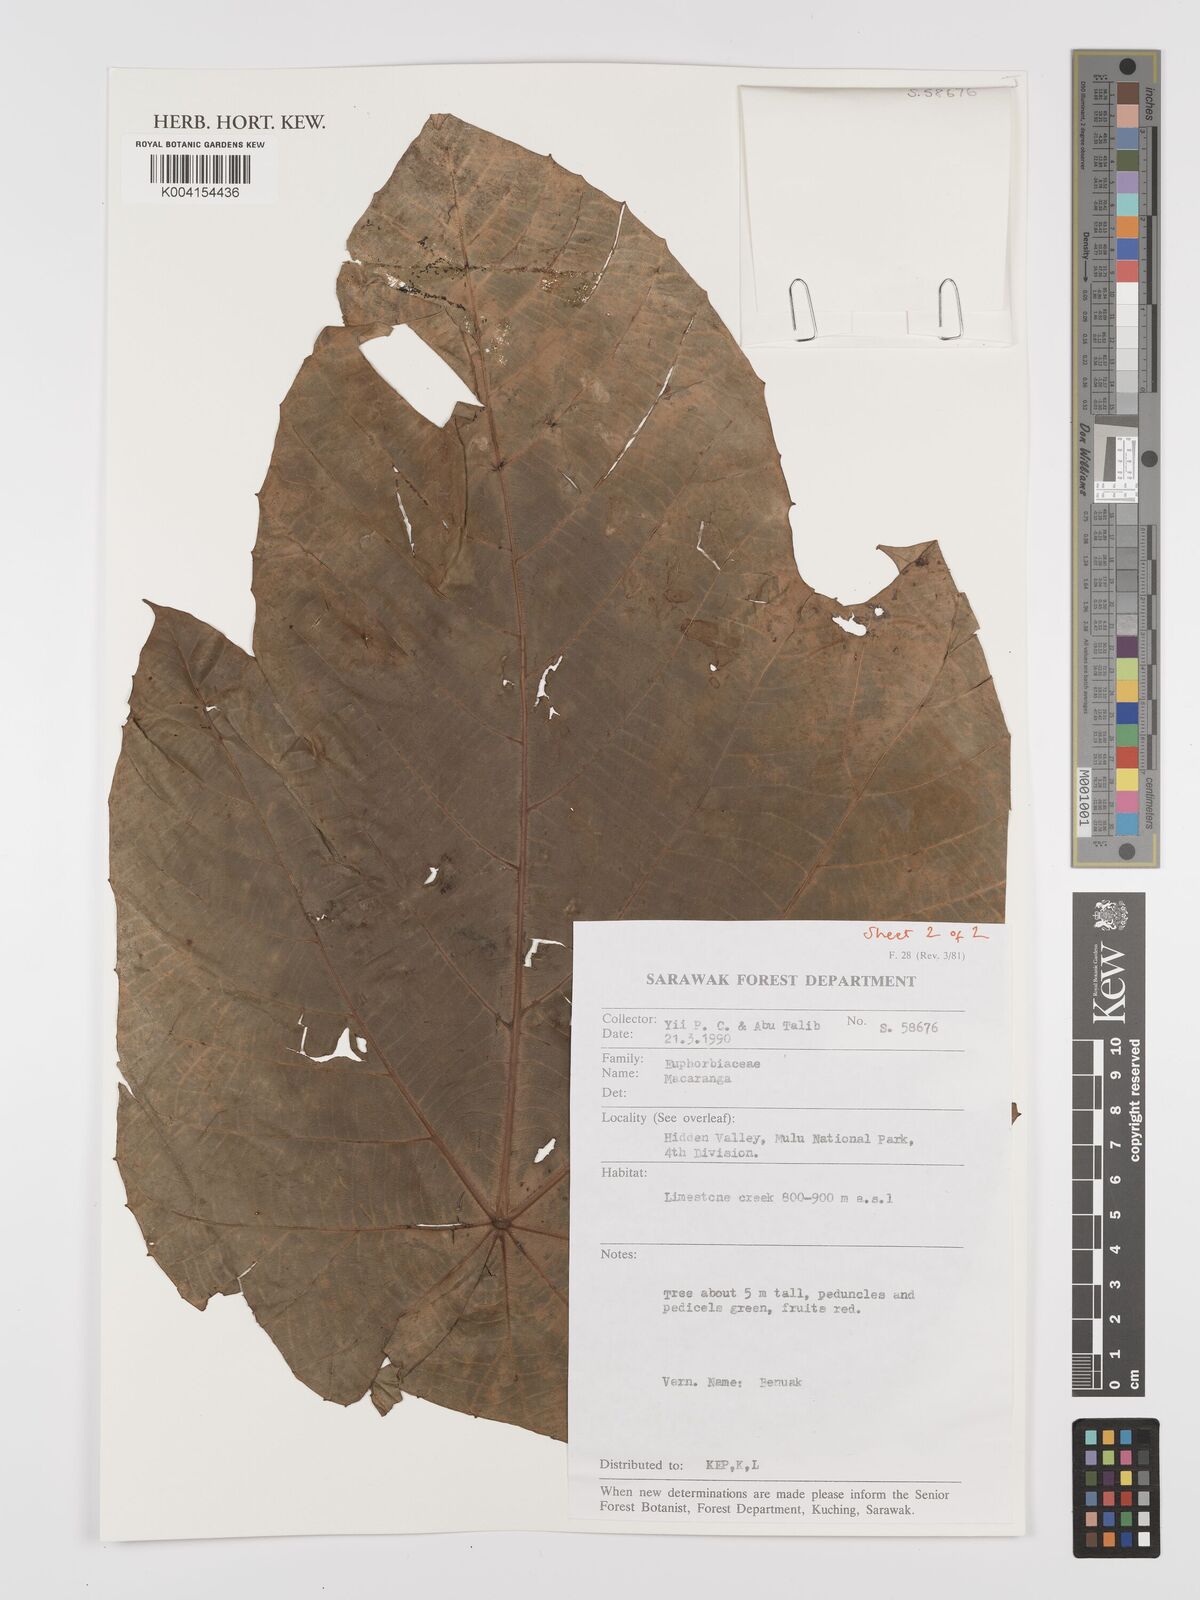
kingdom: Plantae
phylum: Tracheophyta
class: Magnoliopsida
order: Malpighiales
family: Euphorbiaceae
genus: Macaranga
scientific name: Macaranga
